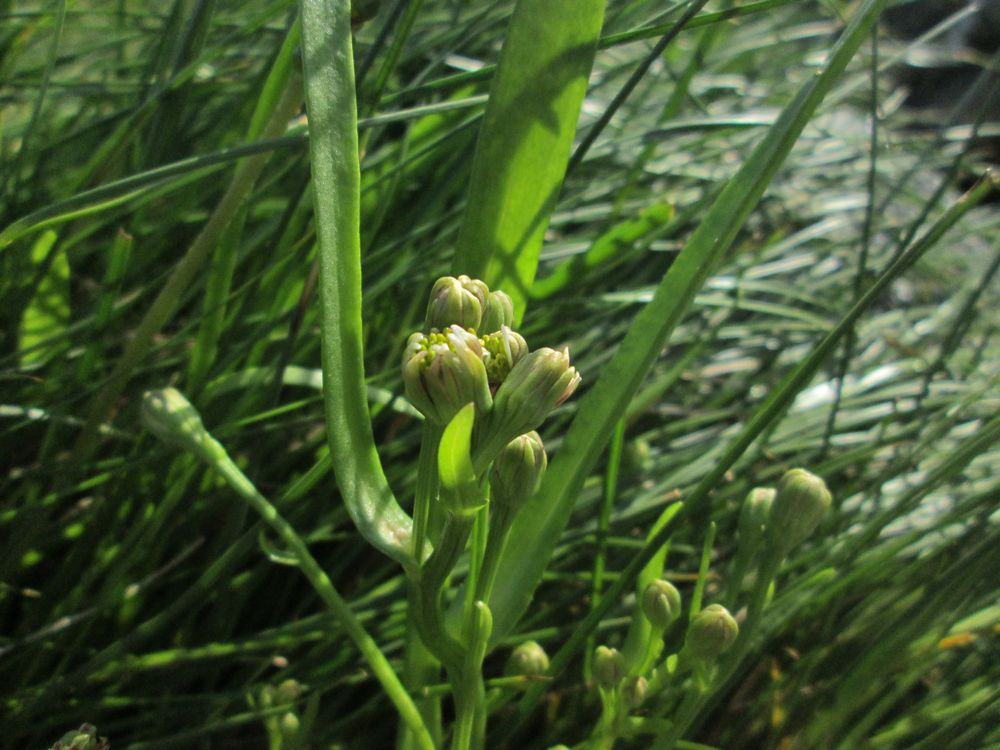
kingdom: Plantae
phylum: Tracheophyta
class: Magnoliopsida
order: Asterales
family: Asteraceae
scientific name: Asteraceae
